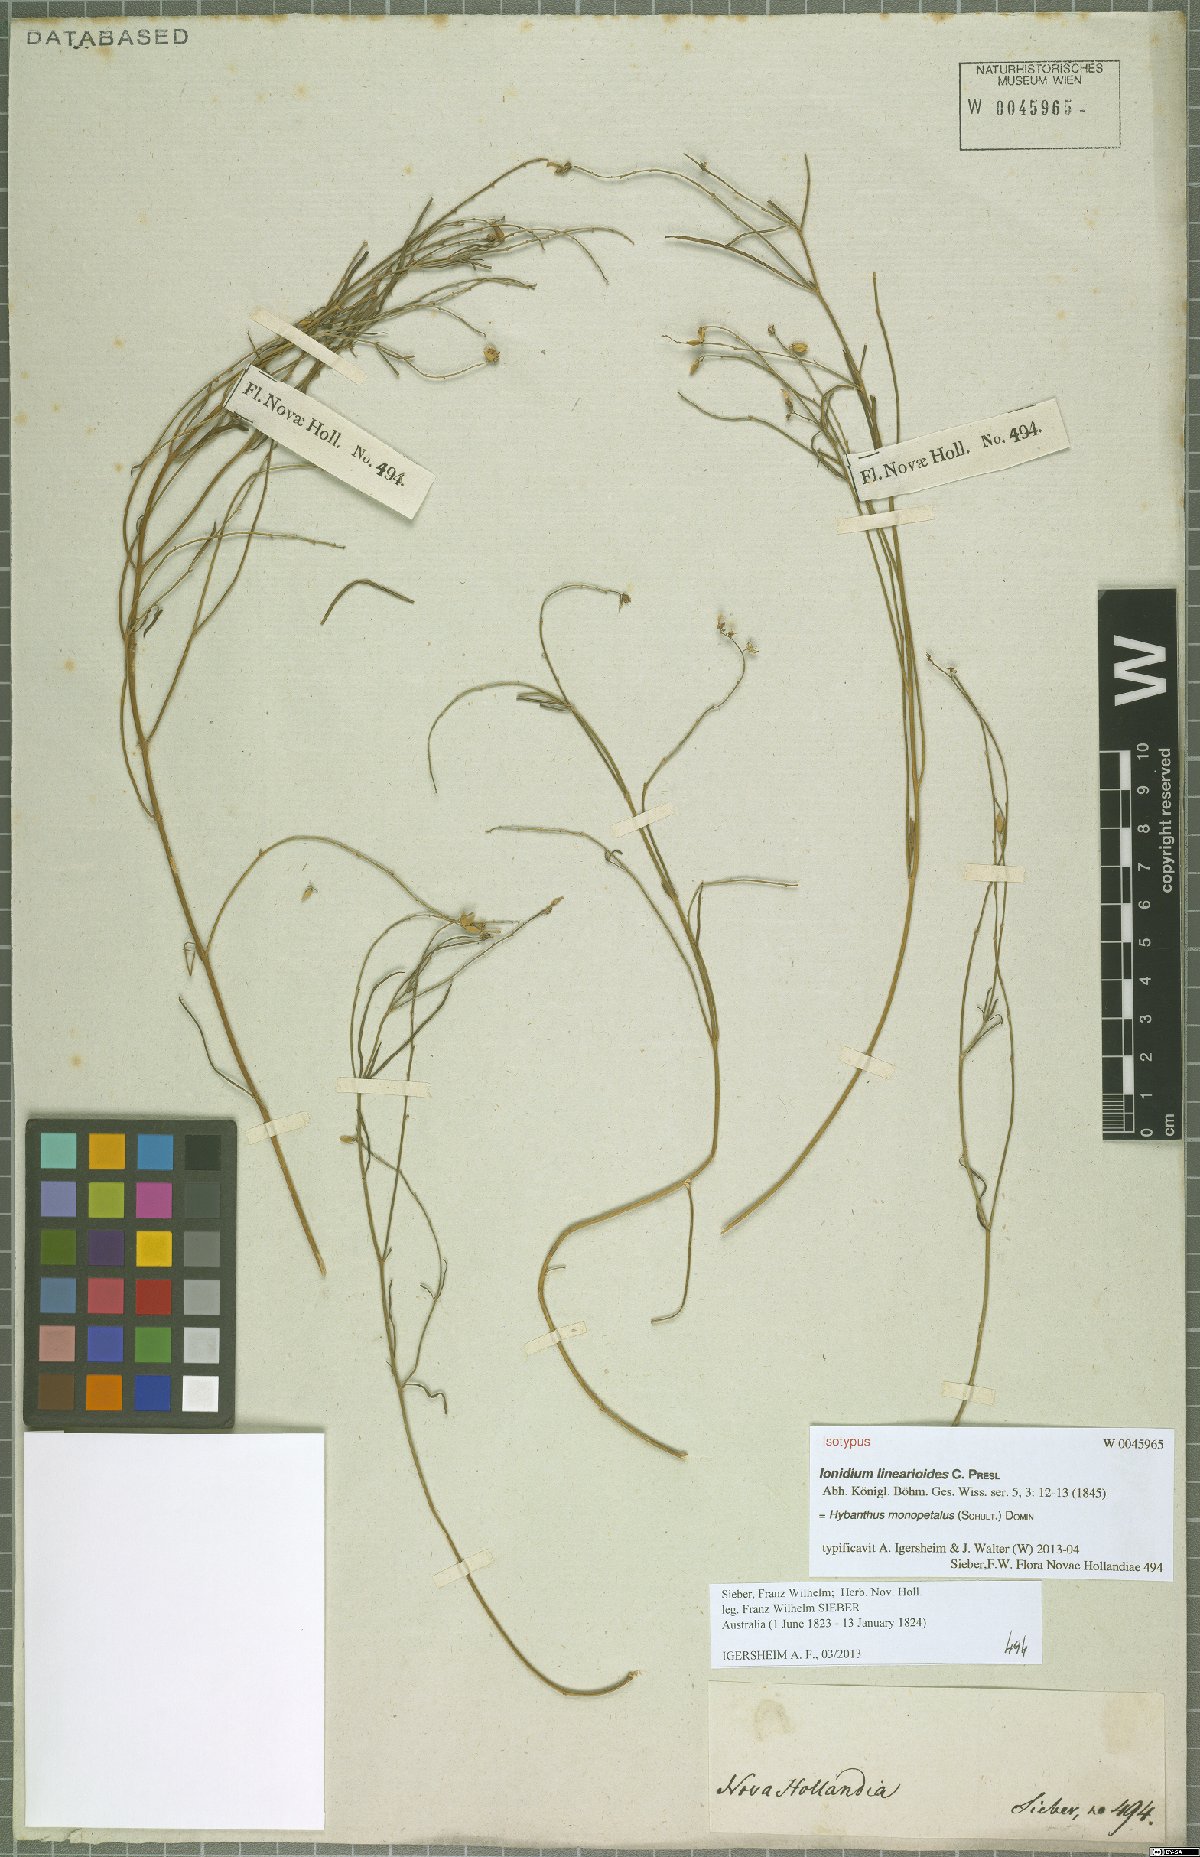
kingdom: Plantae
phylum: Tracheophyta
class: Magnoliopsida
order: Malpighiales
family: Violaceae
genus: Pigea
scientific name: Pigea monopetala
